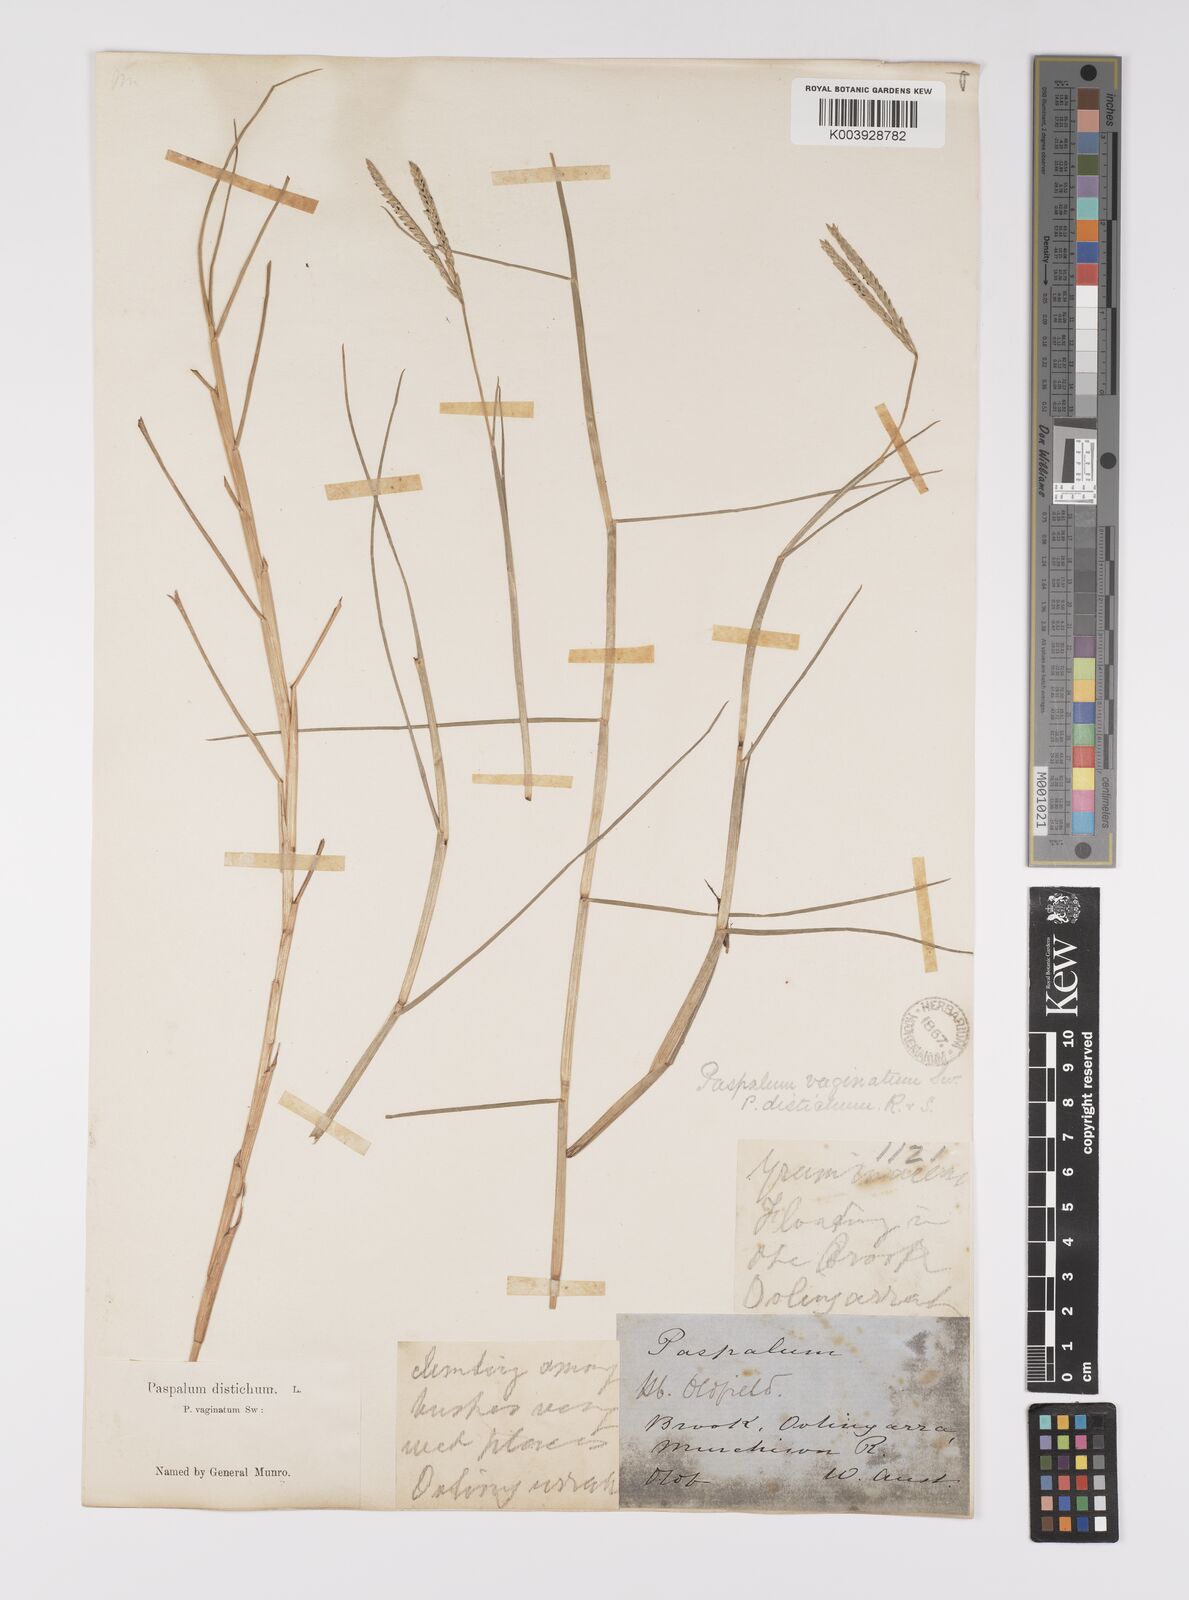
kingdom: Plantae
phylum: Tracheophyta
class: Liliopsida
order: Poales
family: Poaceae
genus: Paspalum
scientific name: Paspalum vaginatum
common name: Seashore paspalum
